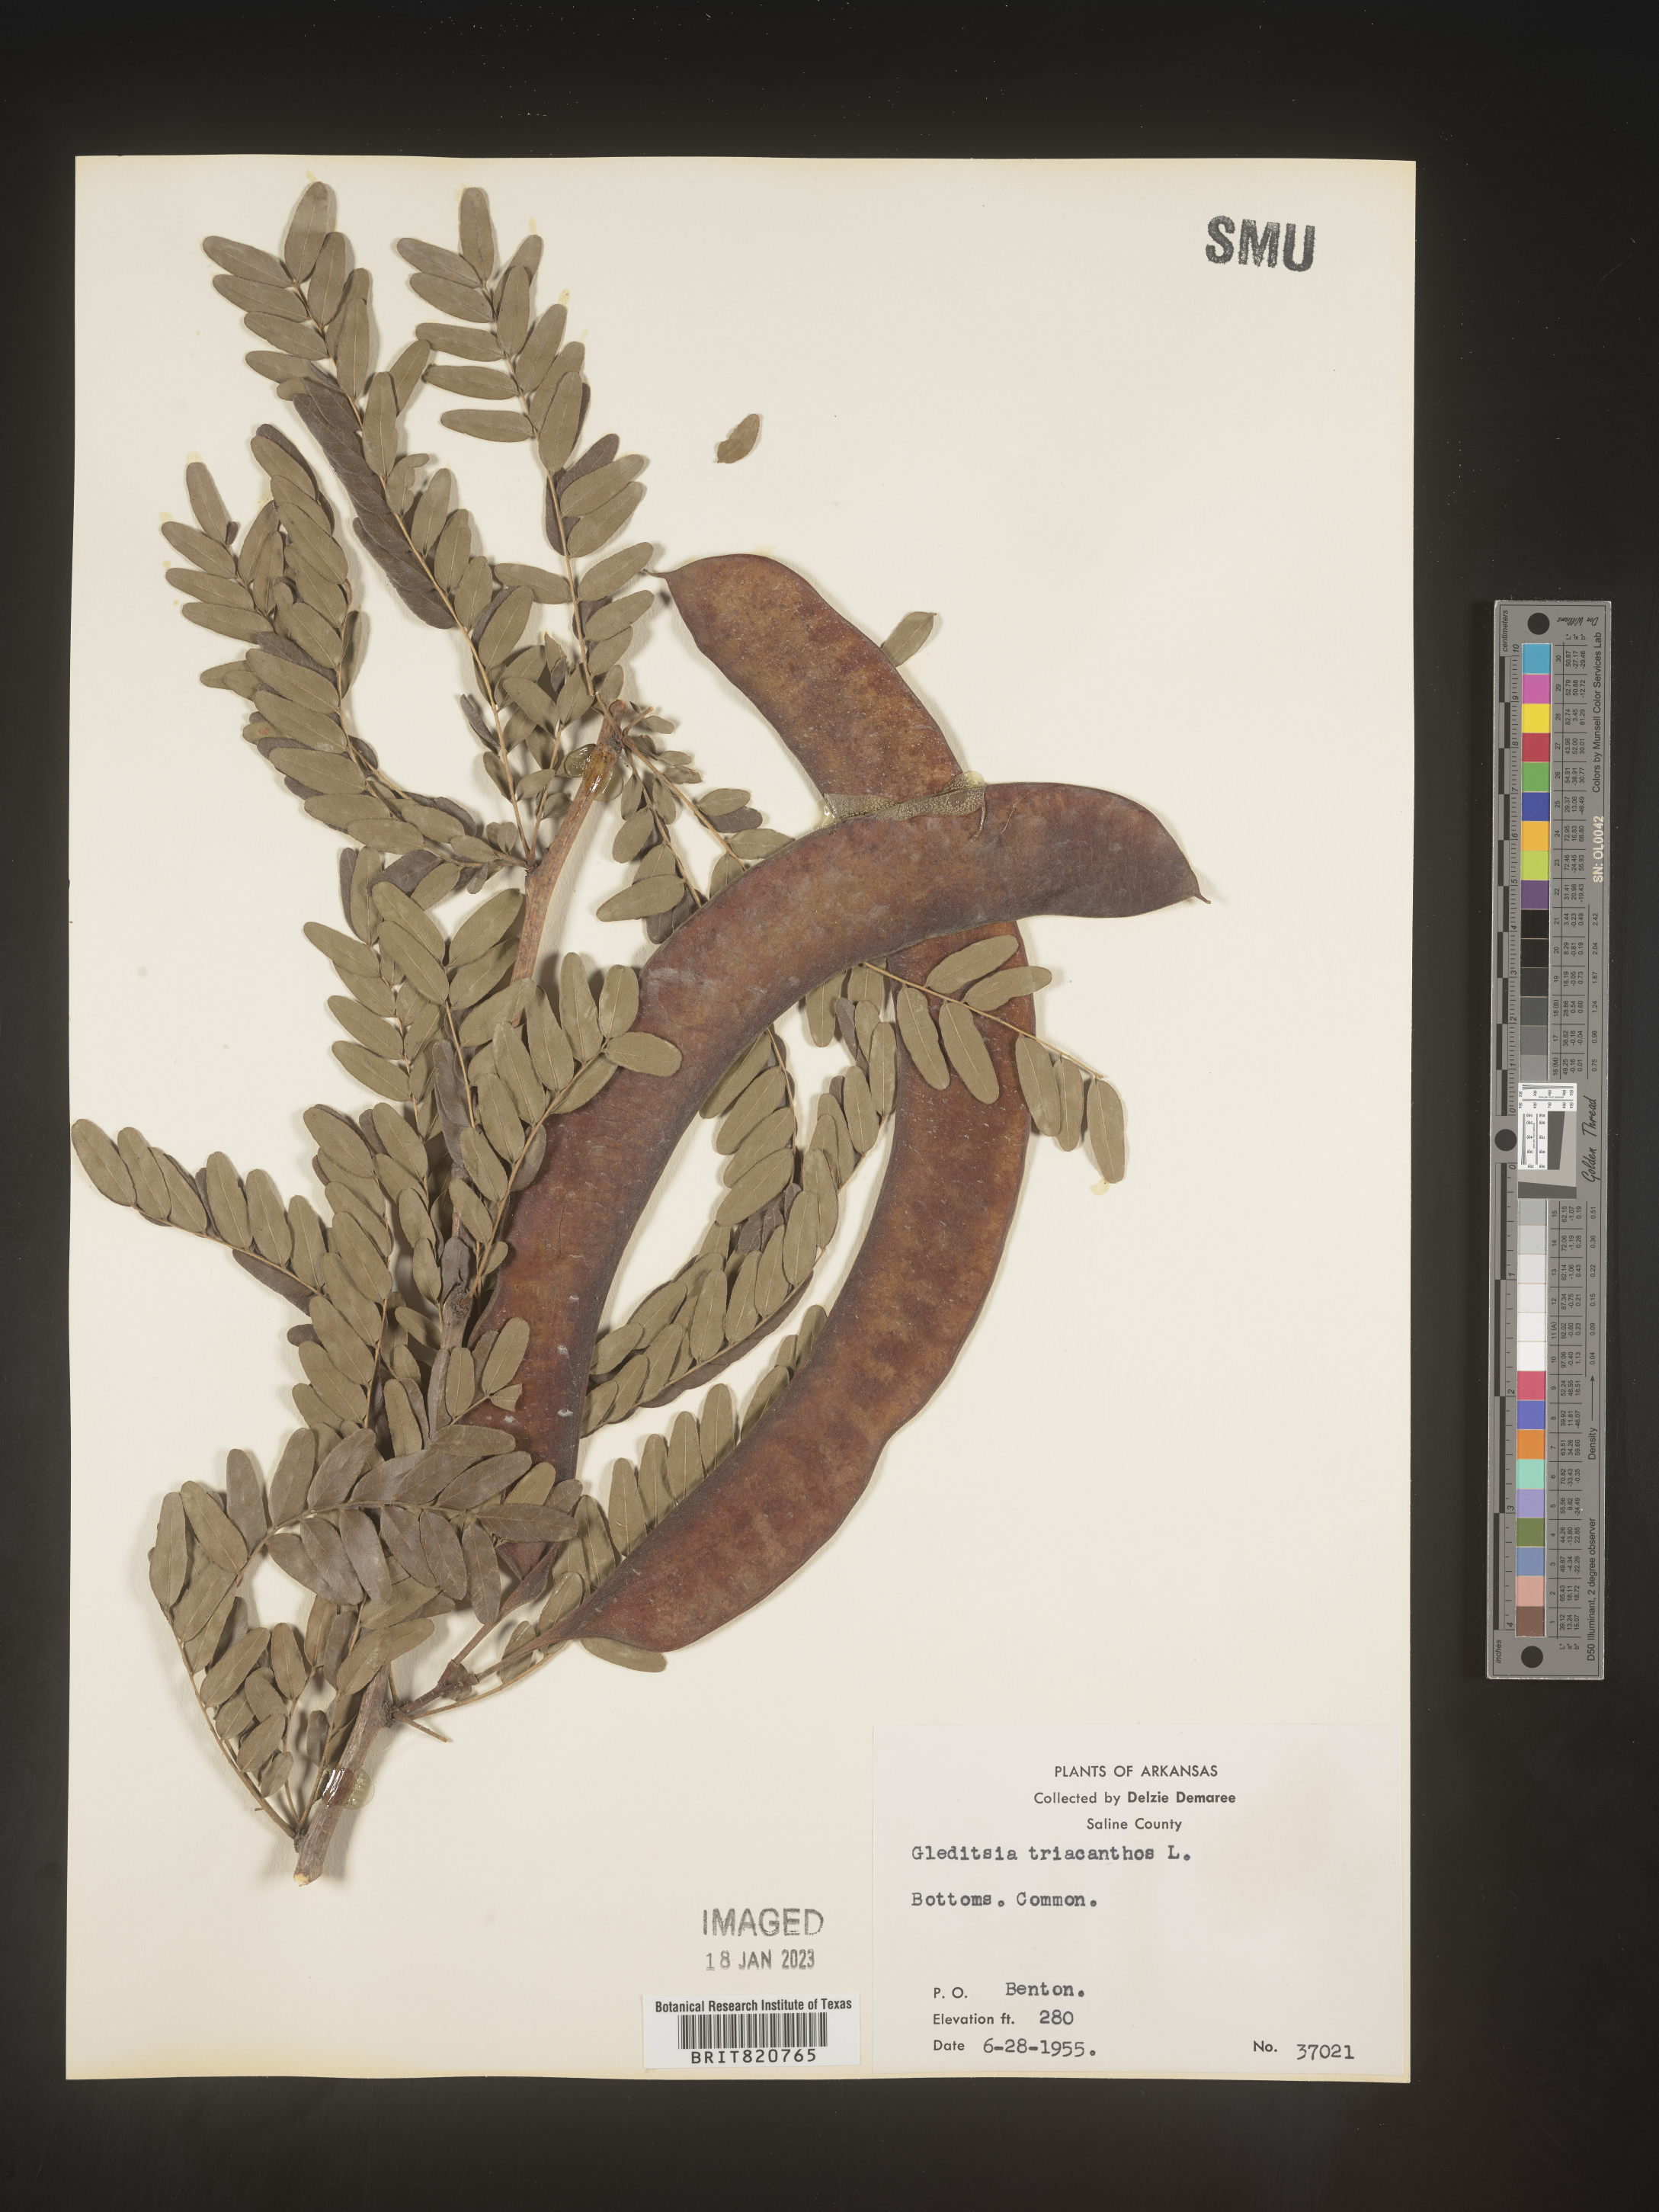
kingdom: Plantae
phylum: Tracheophyta
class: Magnoliopsida
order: Fabales
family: Fabaceae
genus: Gleditsia
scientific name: Gleditsia triacanthos
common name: Common honeylocust
